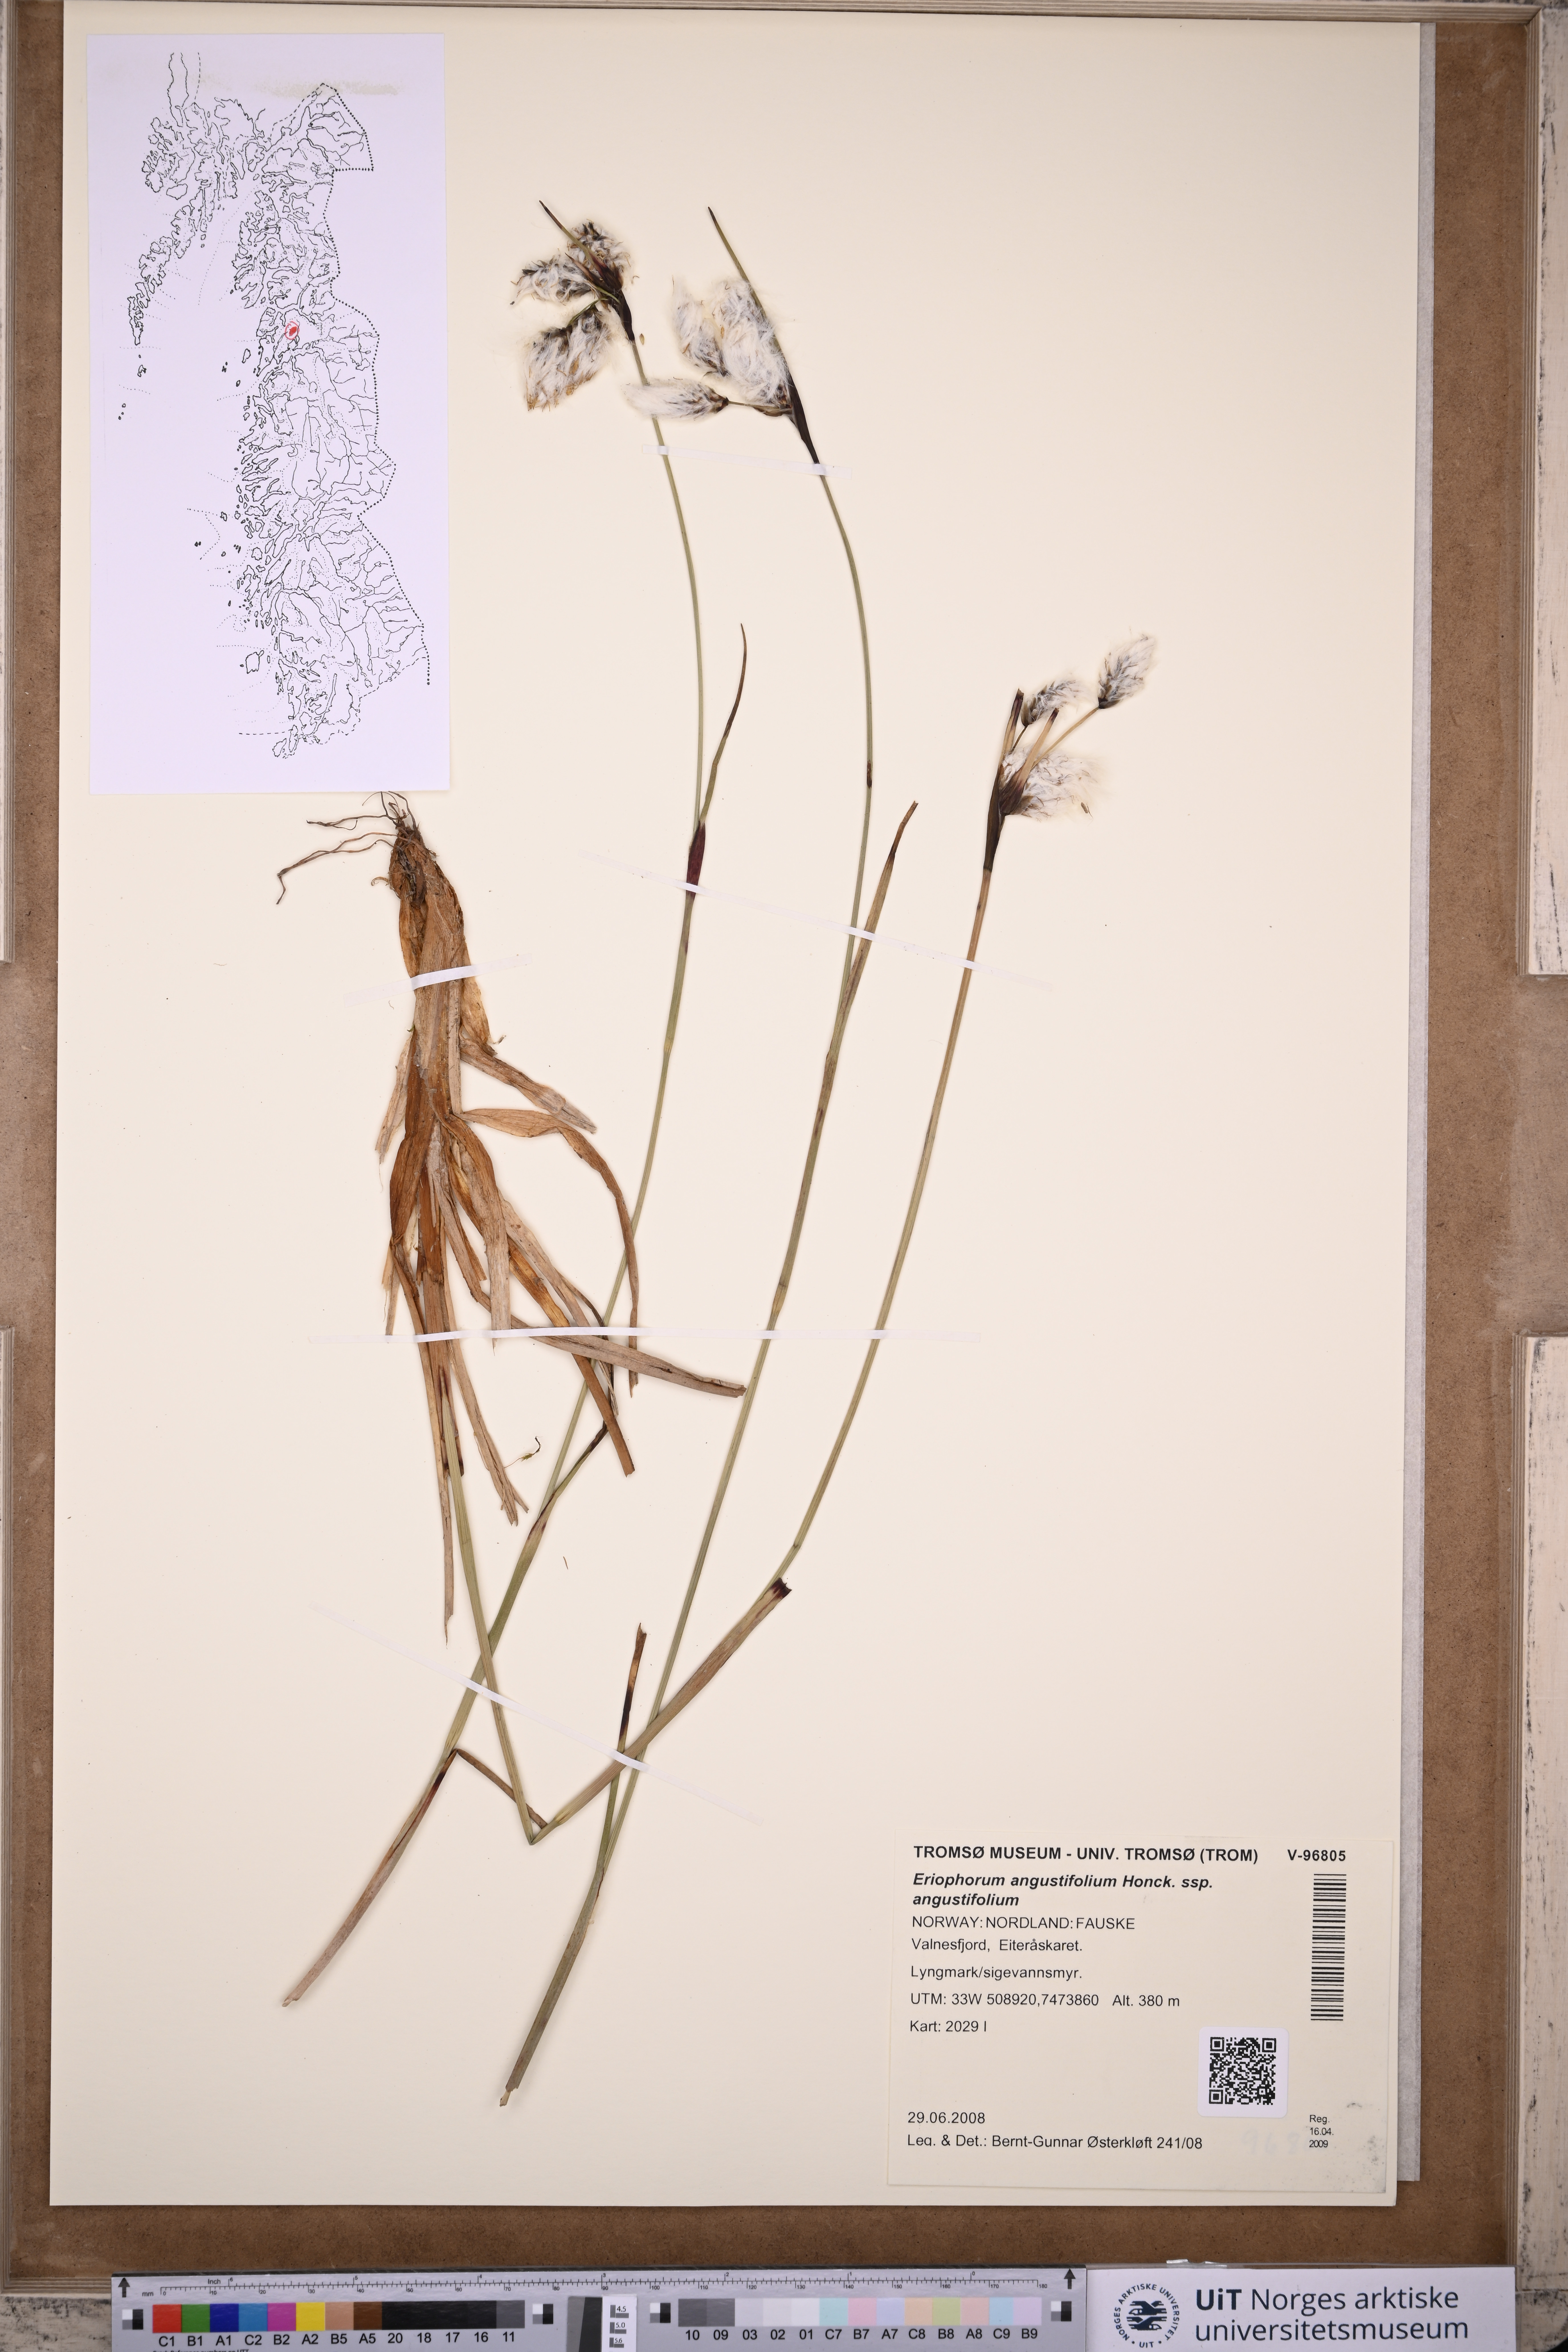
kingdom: Plantae
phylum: Tracheophyta
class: Liliopsida
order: Poales
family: Cyperaceae
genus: Eriophorum
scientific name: Eriophorum angustifolium
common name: Common cottongrass
